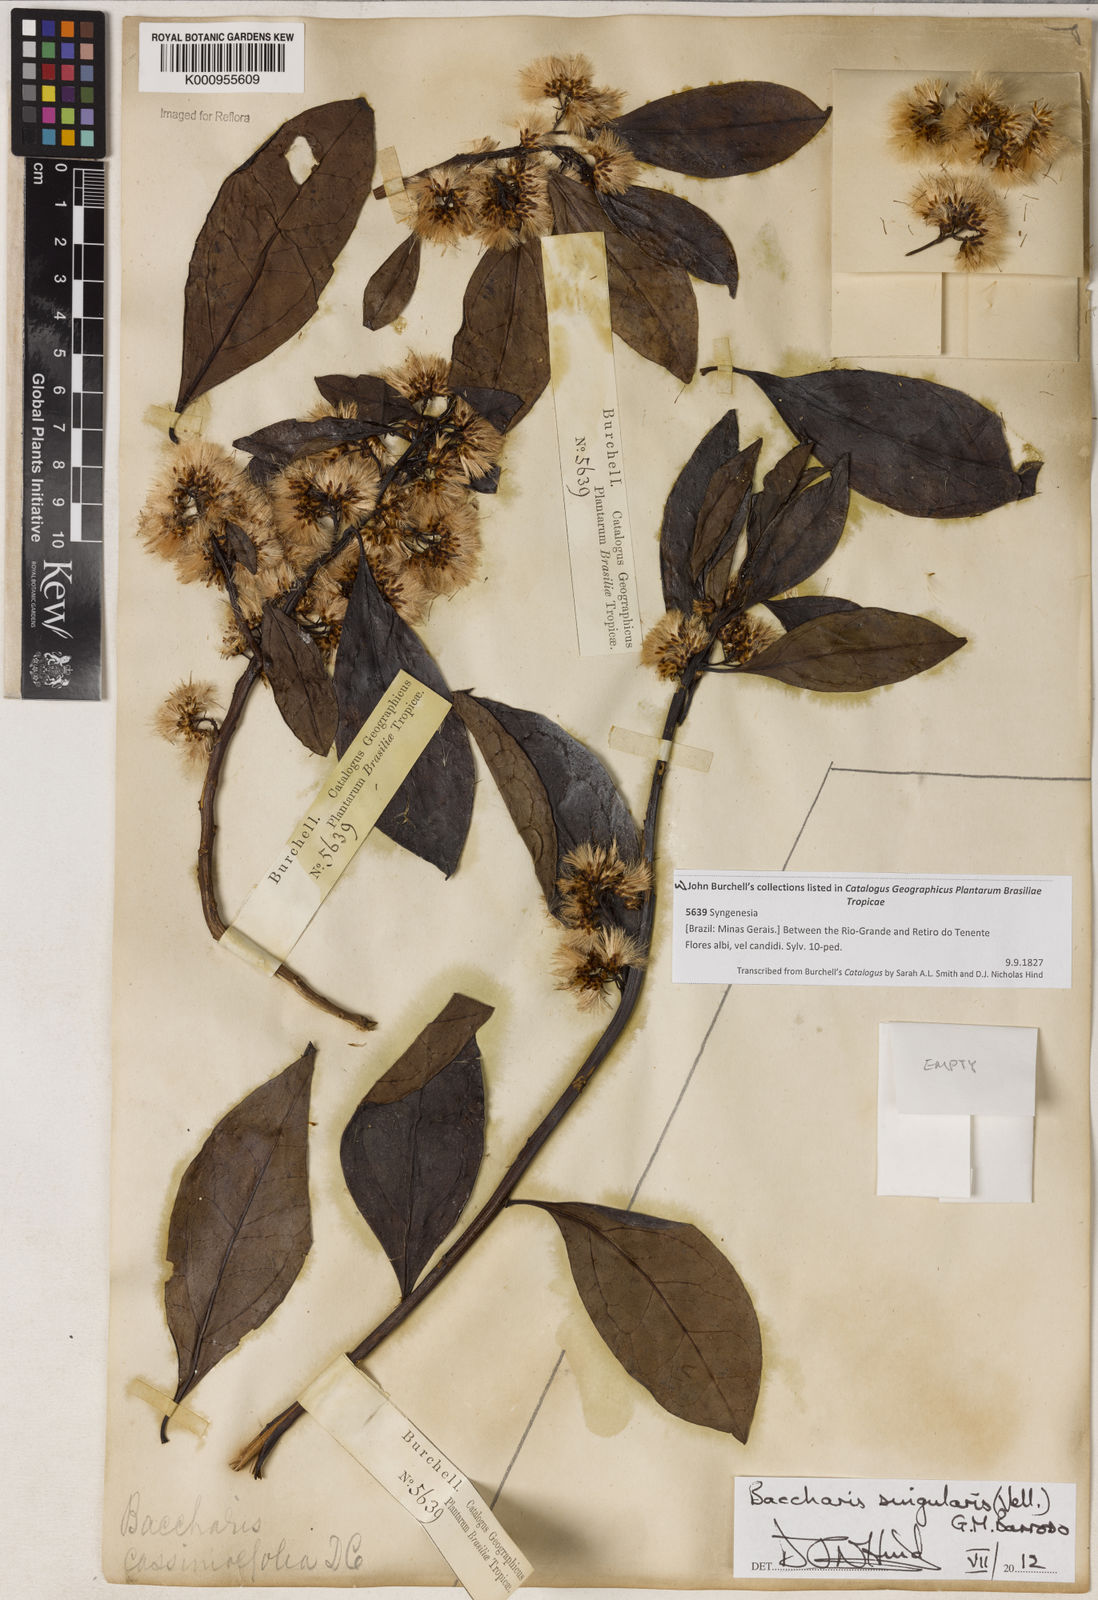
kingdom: Plantae
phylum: Tracheophyta
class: Magnoliopsida
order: Asterales
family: Asteraceae
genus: Baccharis
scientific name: Baccharis singularis
